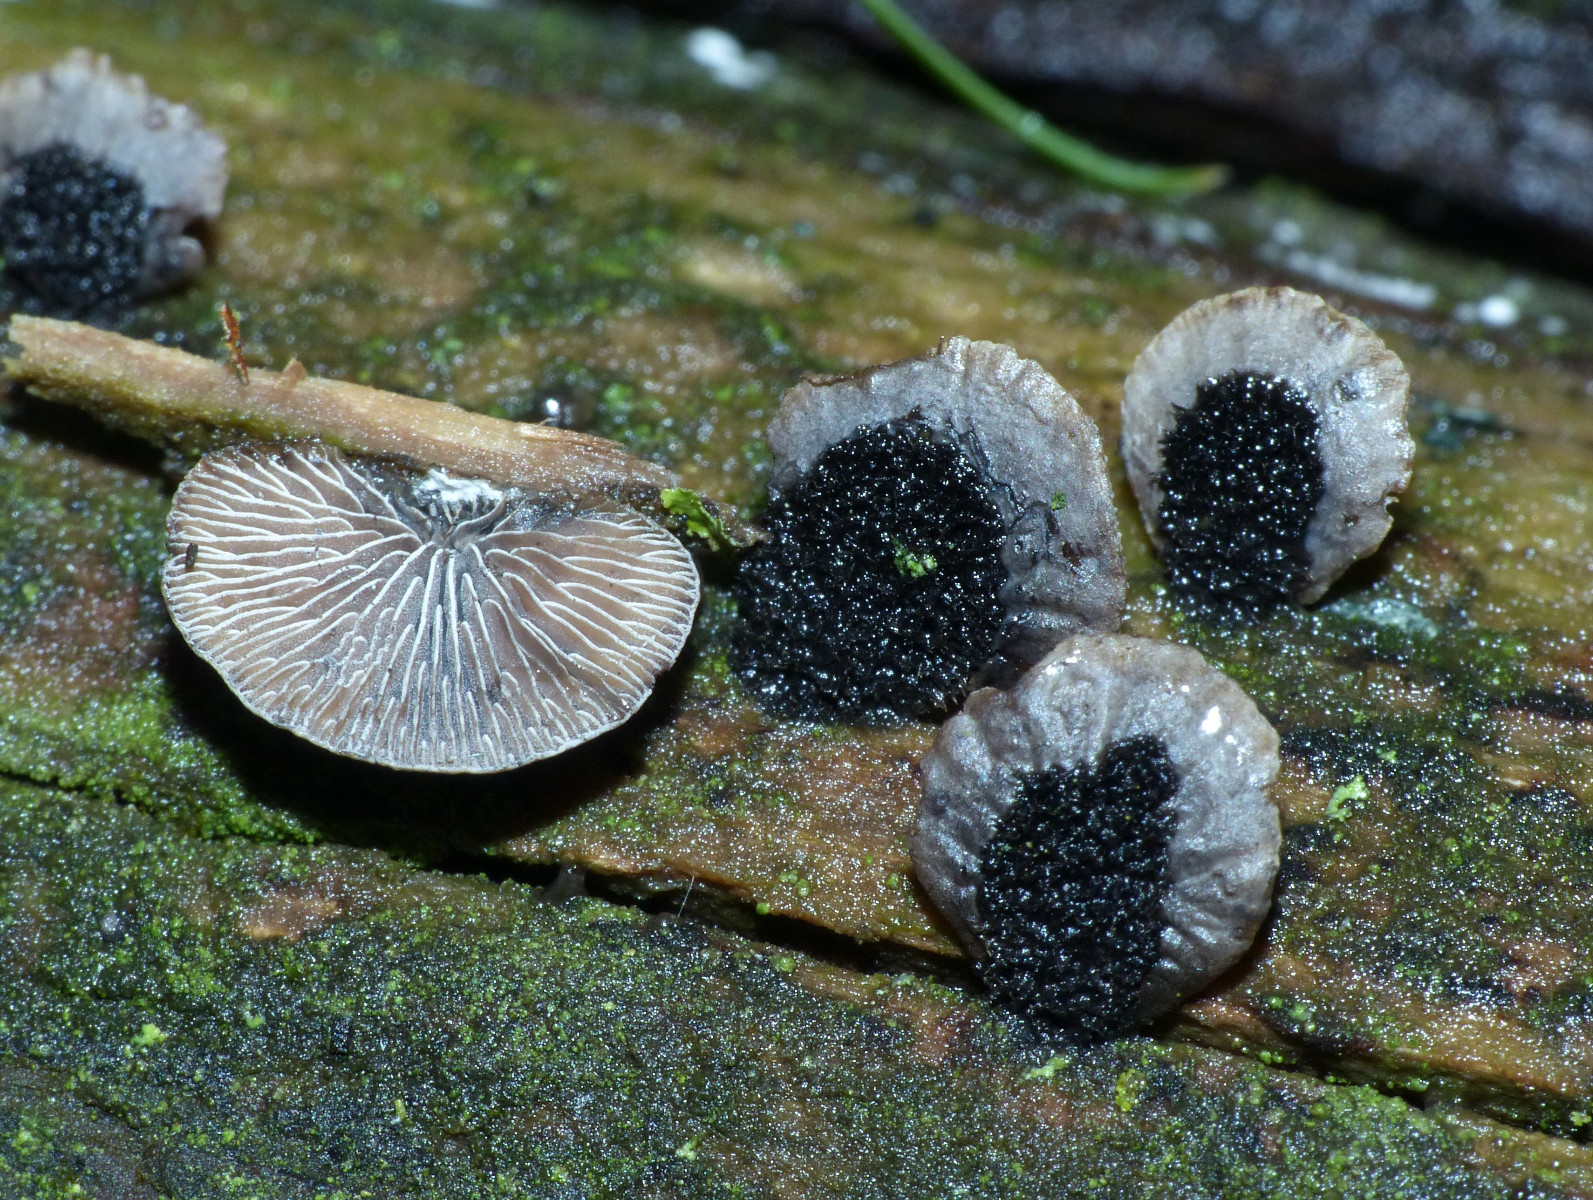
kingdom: Fungi
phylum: Basidiomycota
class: Agaricomycetes
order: Agaricales
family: Pleurotaceae
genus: Resupinatus
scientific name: Resupinatus trichotis
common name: mørkfiltet barkhat
